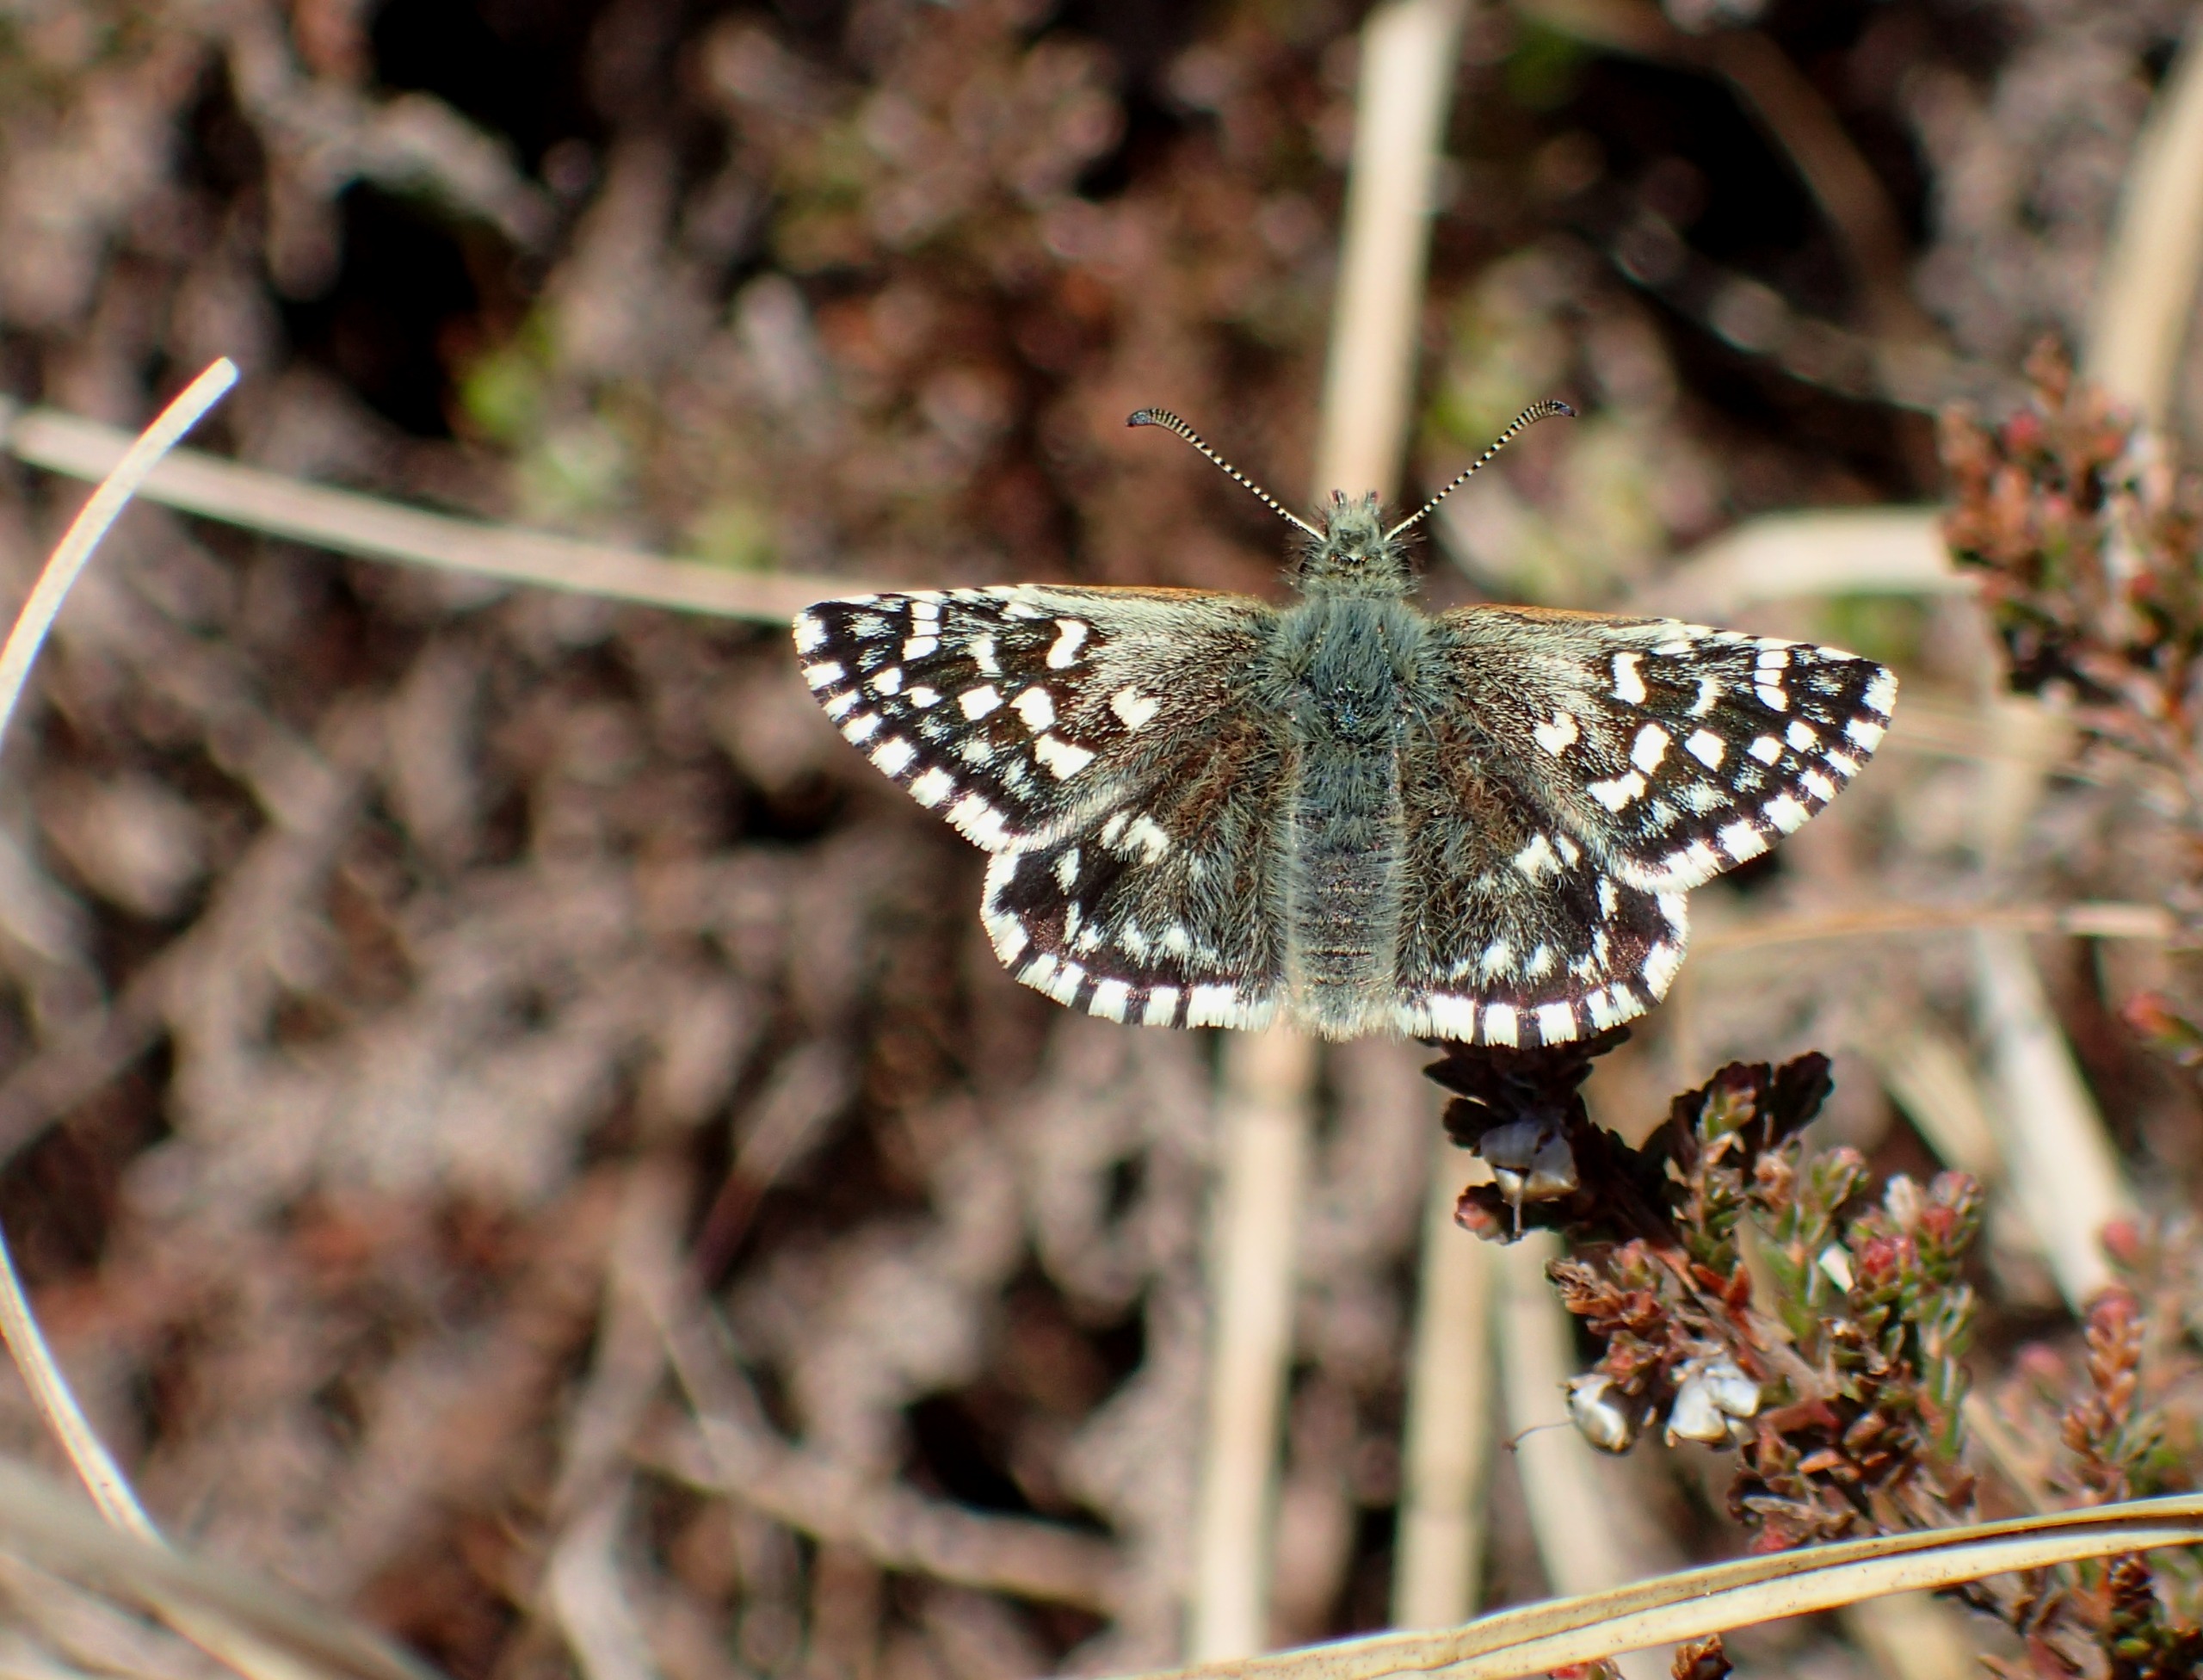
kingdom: Animalia
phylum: Arthropoda
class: Insecta
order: Lepidoptera
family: Hesperiidae
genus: Pyrgus
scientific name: Pyrgus malvae
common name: Spættet bredpande
